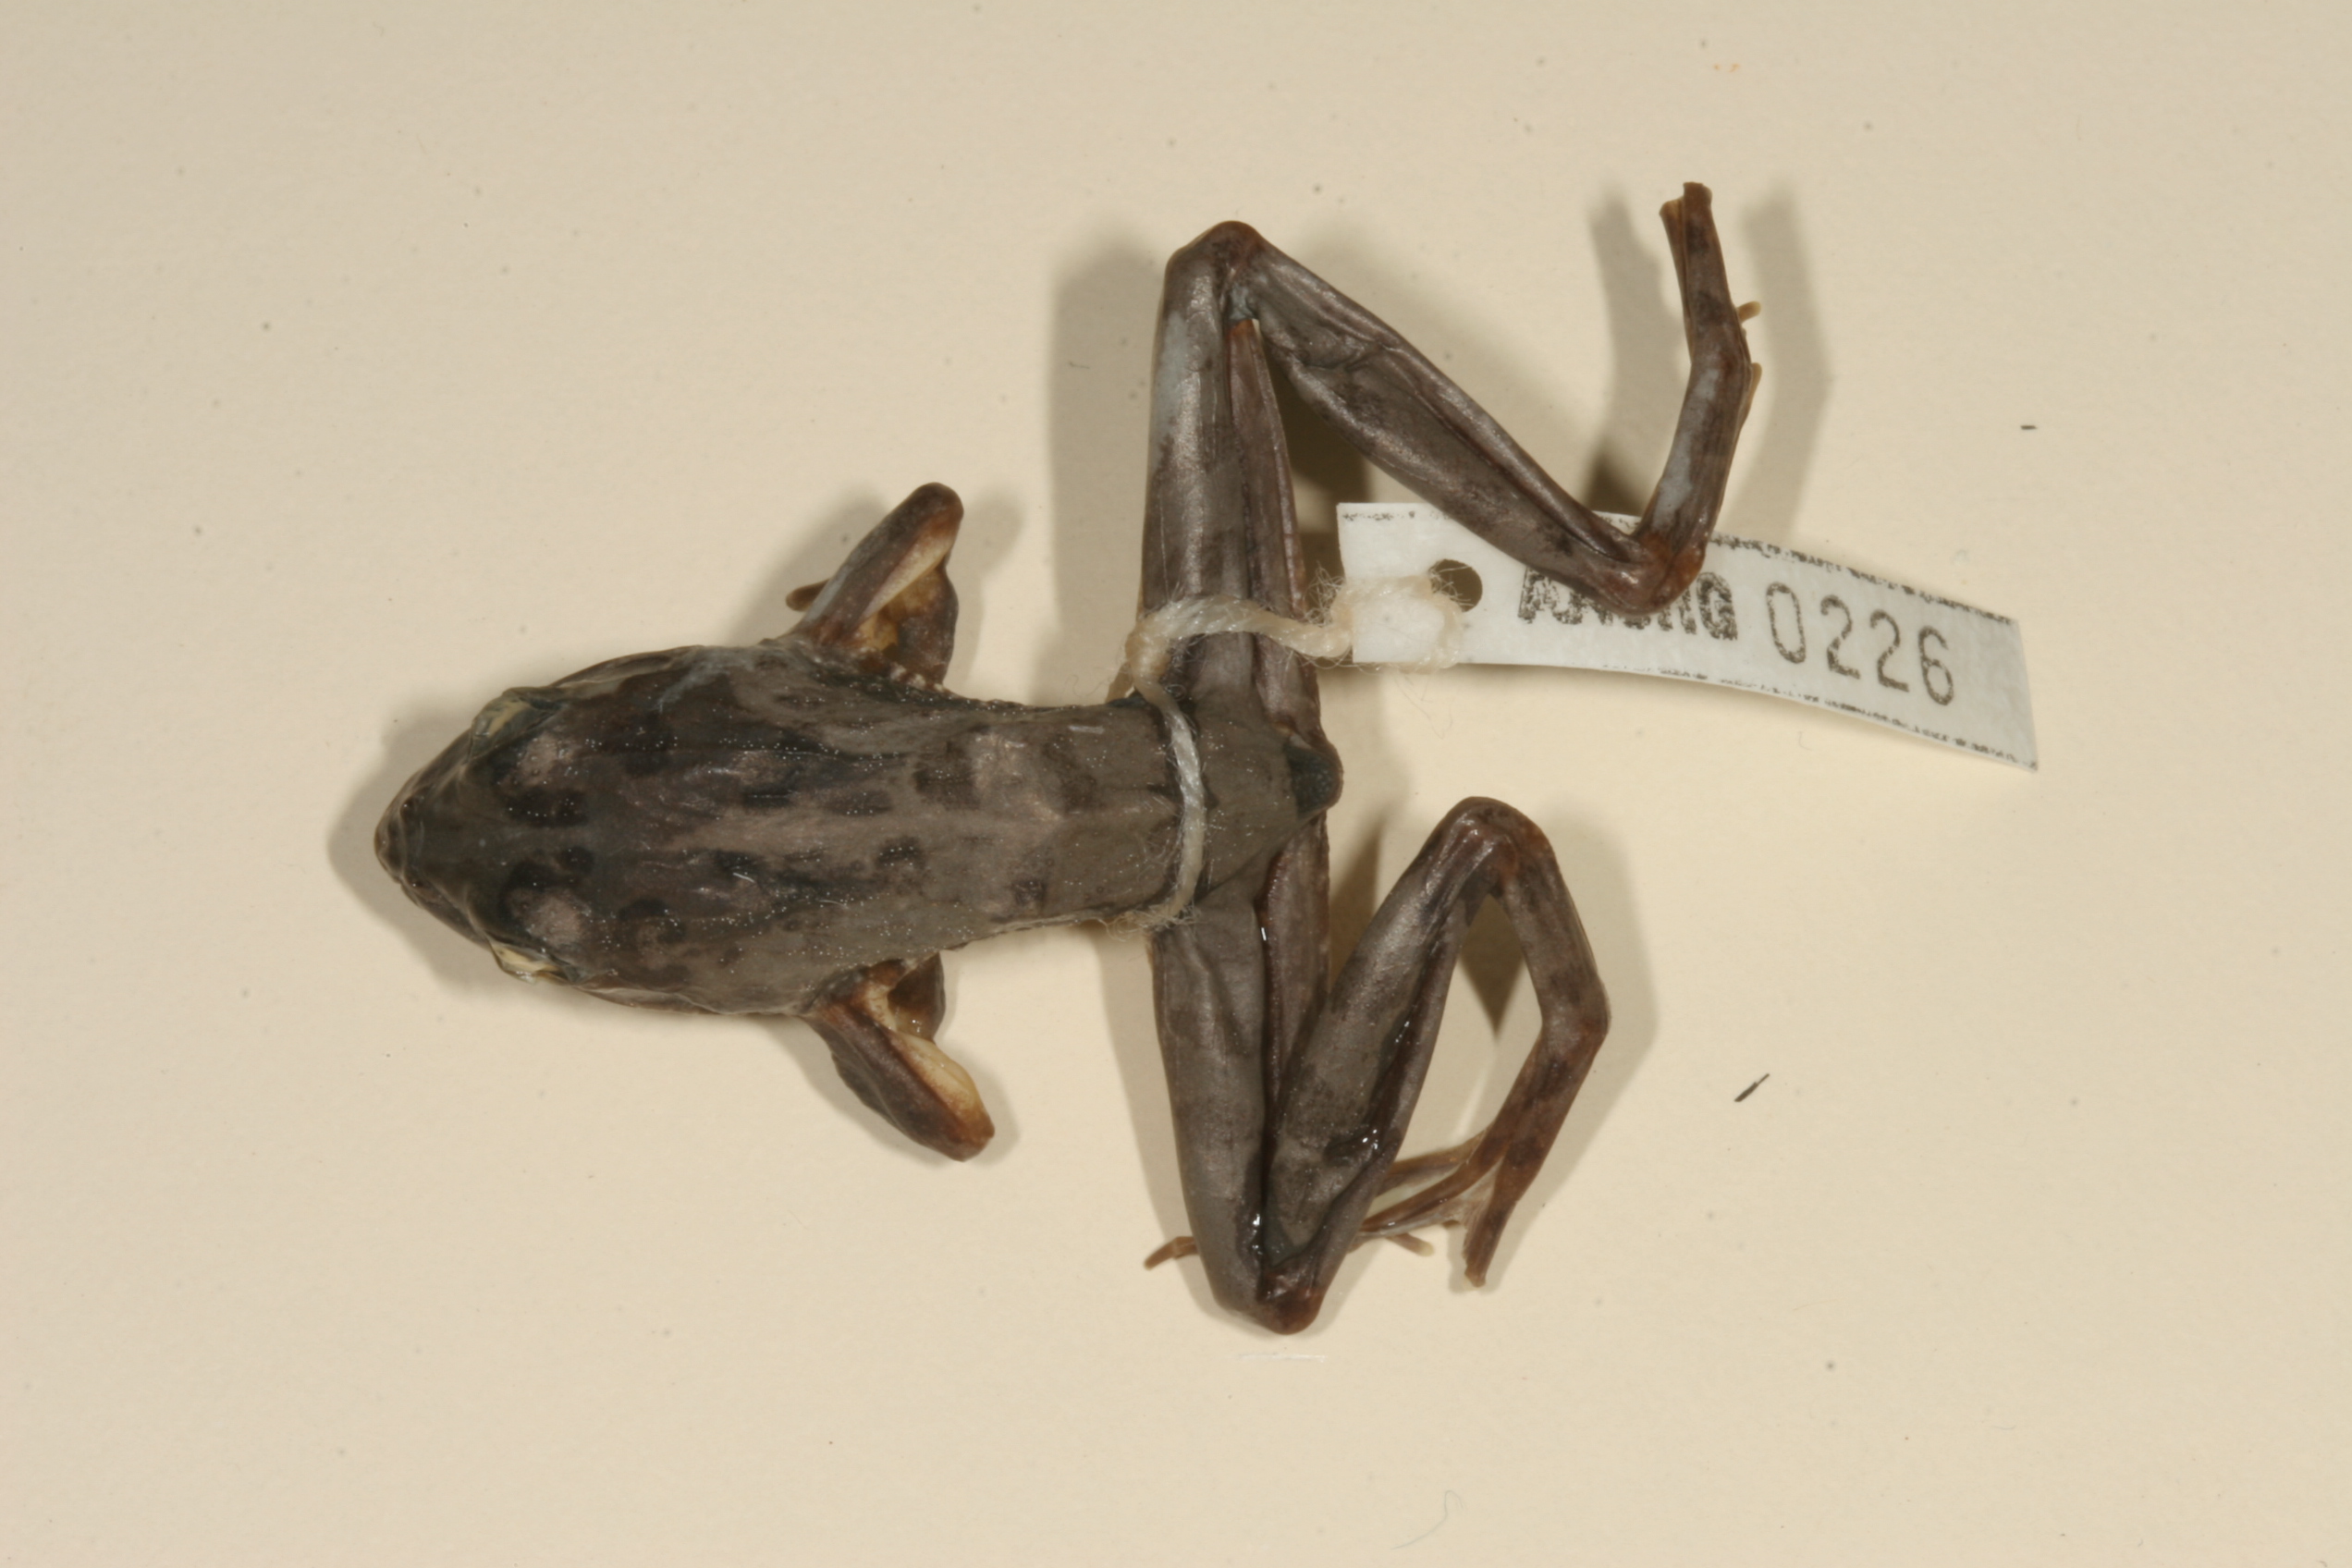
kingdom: Animalia
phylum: Chordata
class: Amphibia
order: Anura
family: Pyxicephalidae
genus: Amietia
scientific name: Amietia angolensis
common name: Dusky-throated frog
